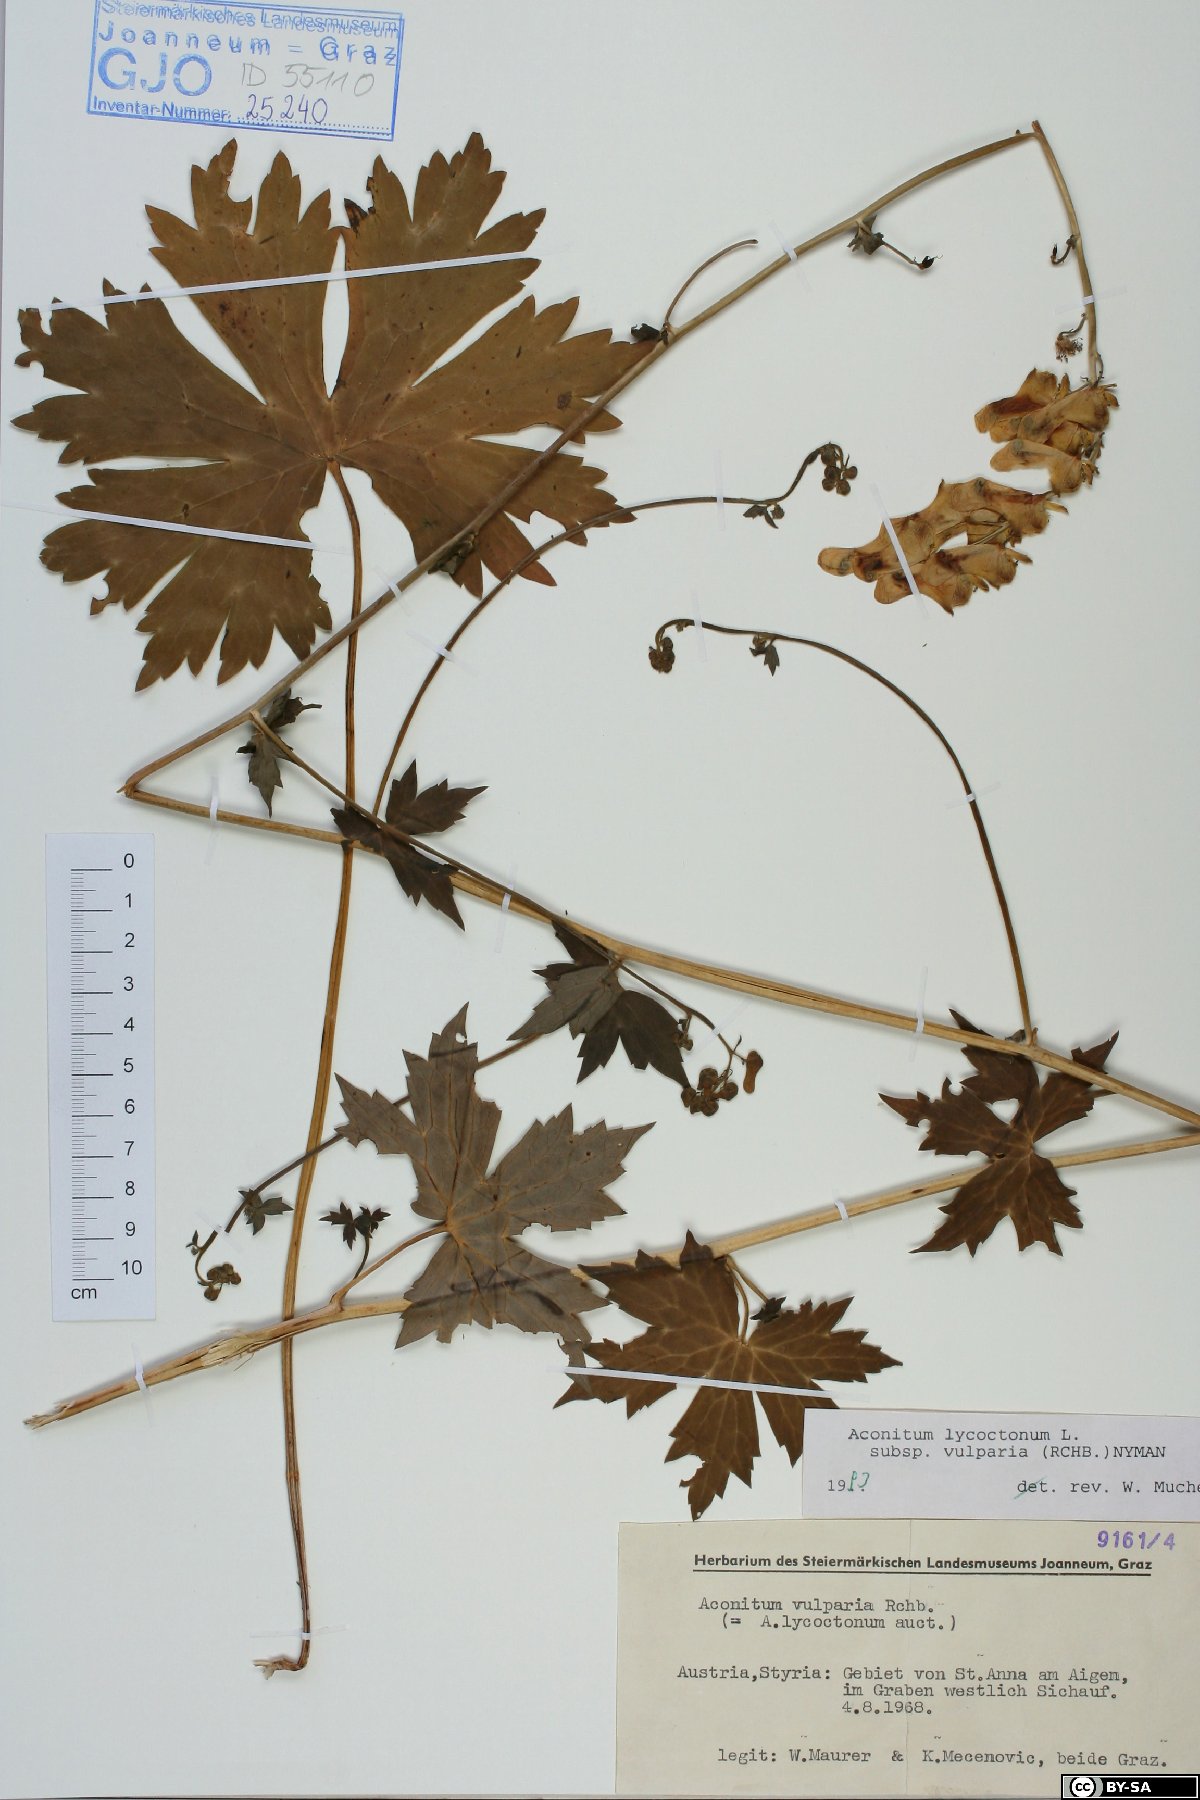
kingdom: Plantae
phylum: Tracheophyta
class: Magnoliopsida
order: Ranunculales
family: Ranunculaceae
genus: Aconitum
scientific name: Aconitum lycoctonum
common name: Wolf's-bane
